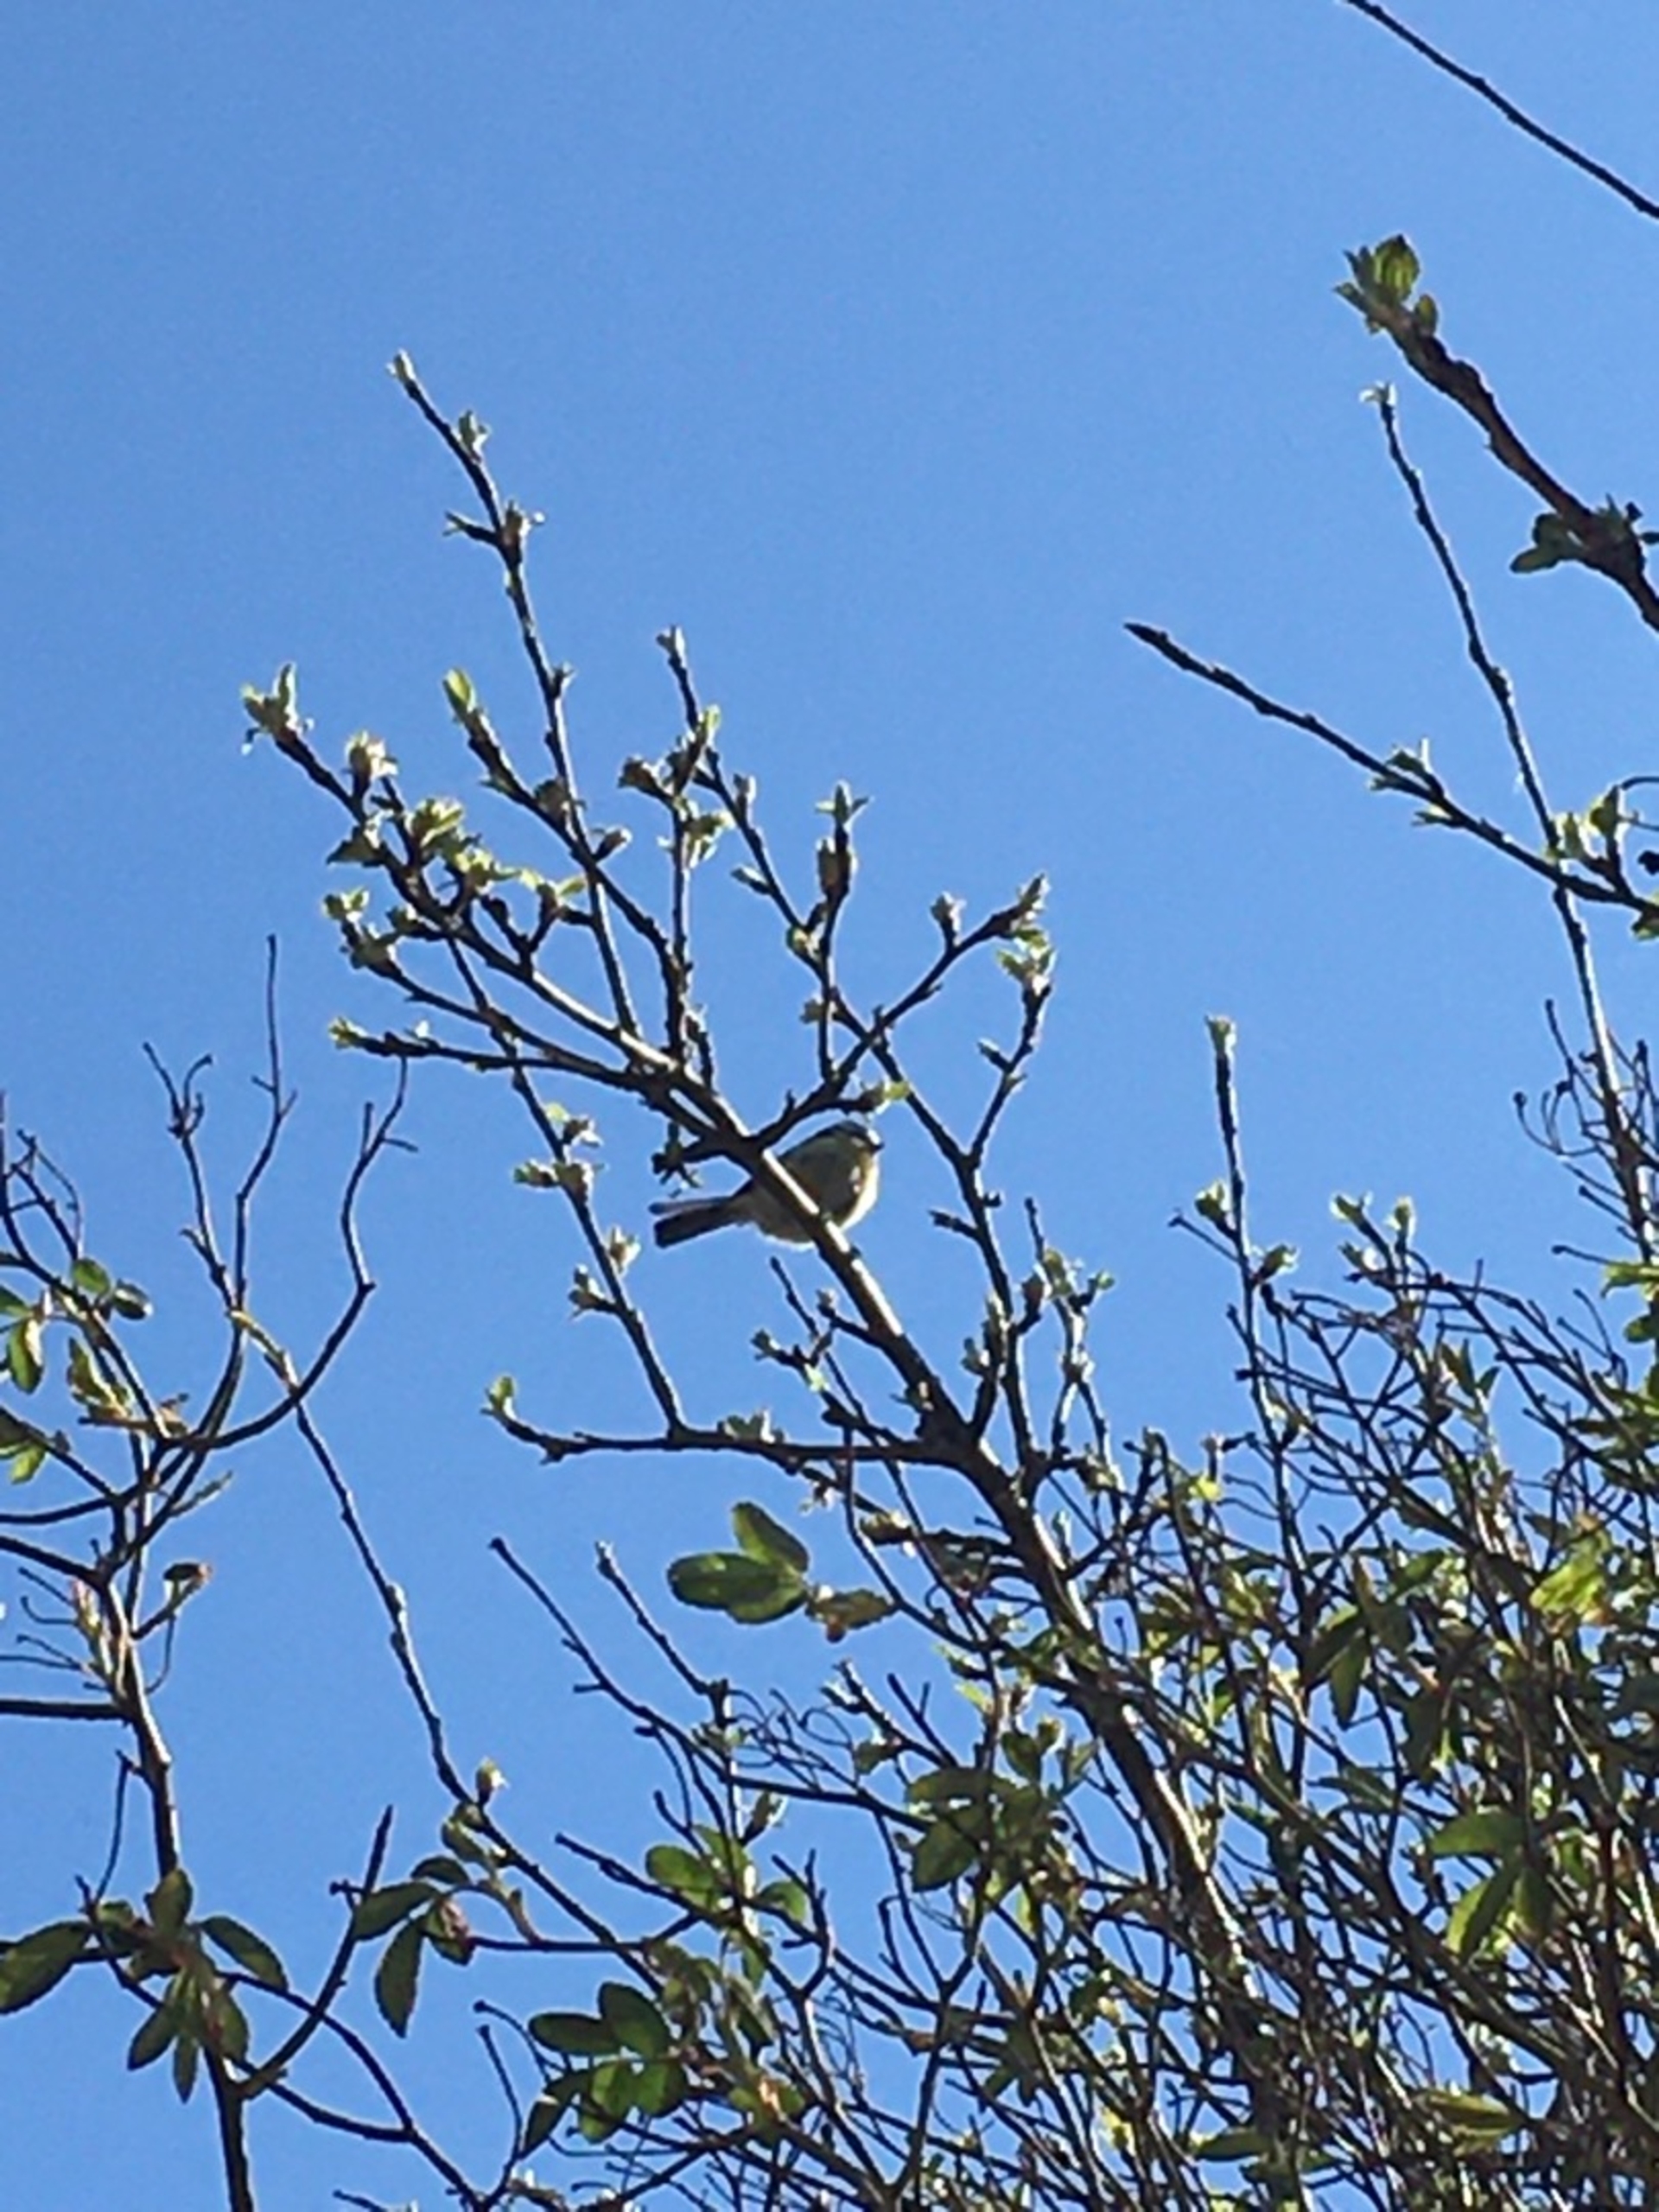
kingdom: Animalia
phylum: Chordata
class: Aves
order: Passeriformes
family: Paridae
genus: Cyanistes
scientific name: Cyanistes caeruleus
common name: Blåmejse
